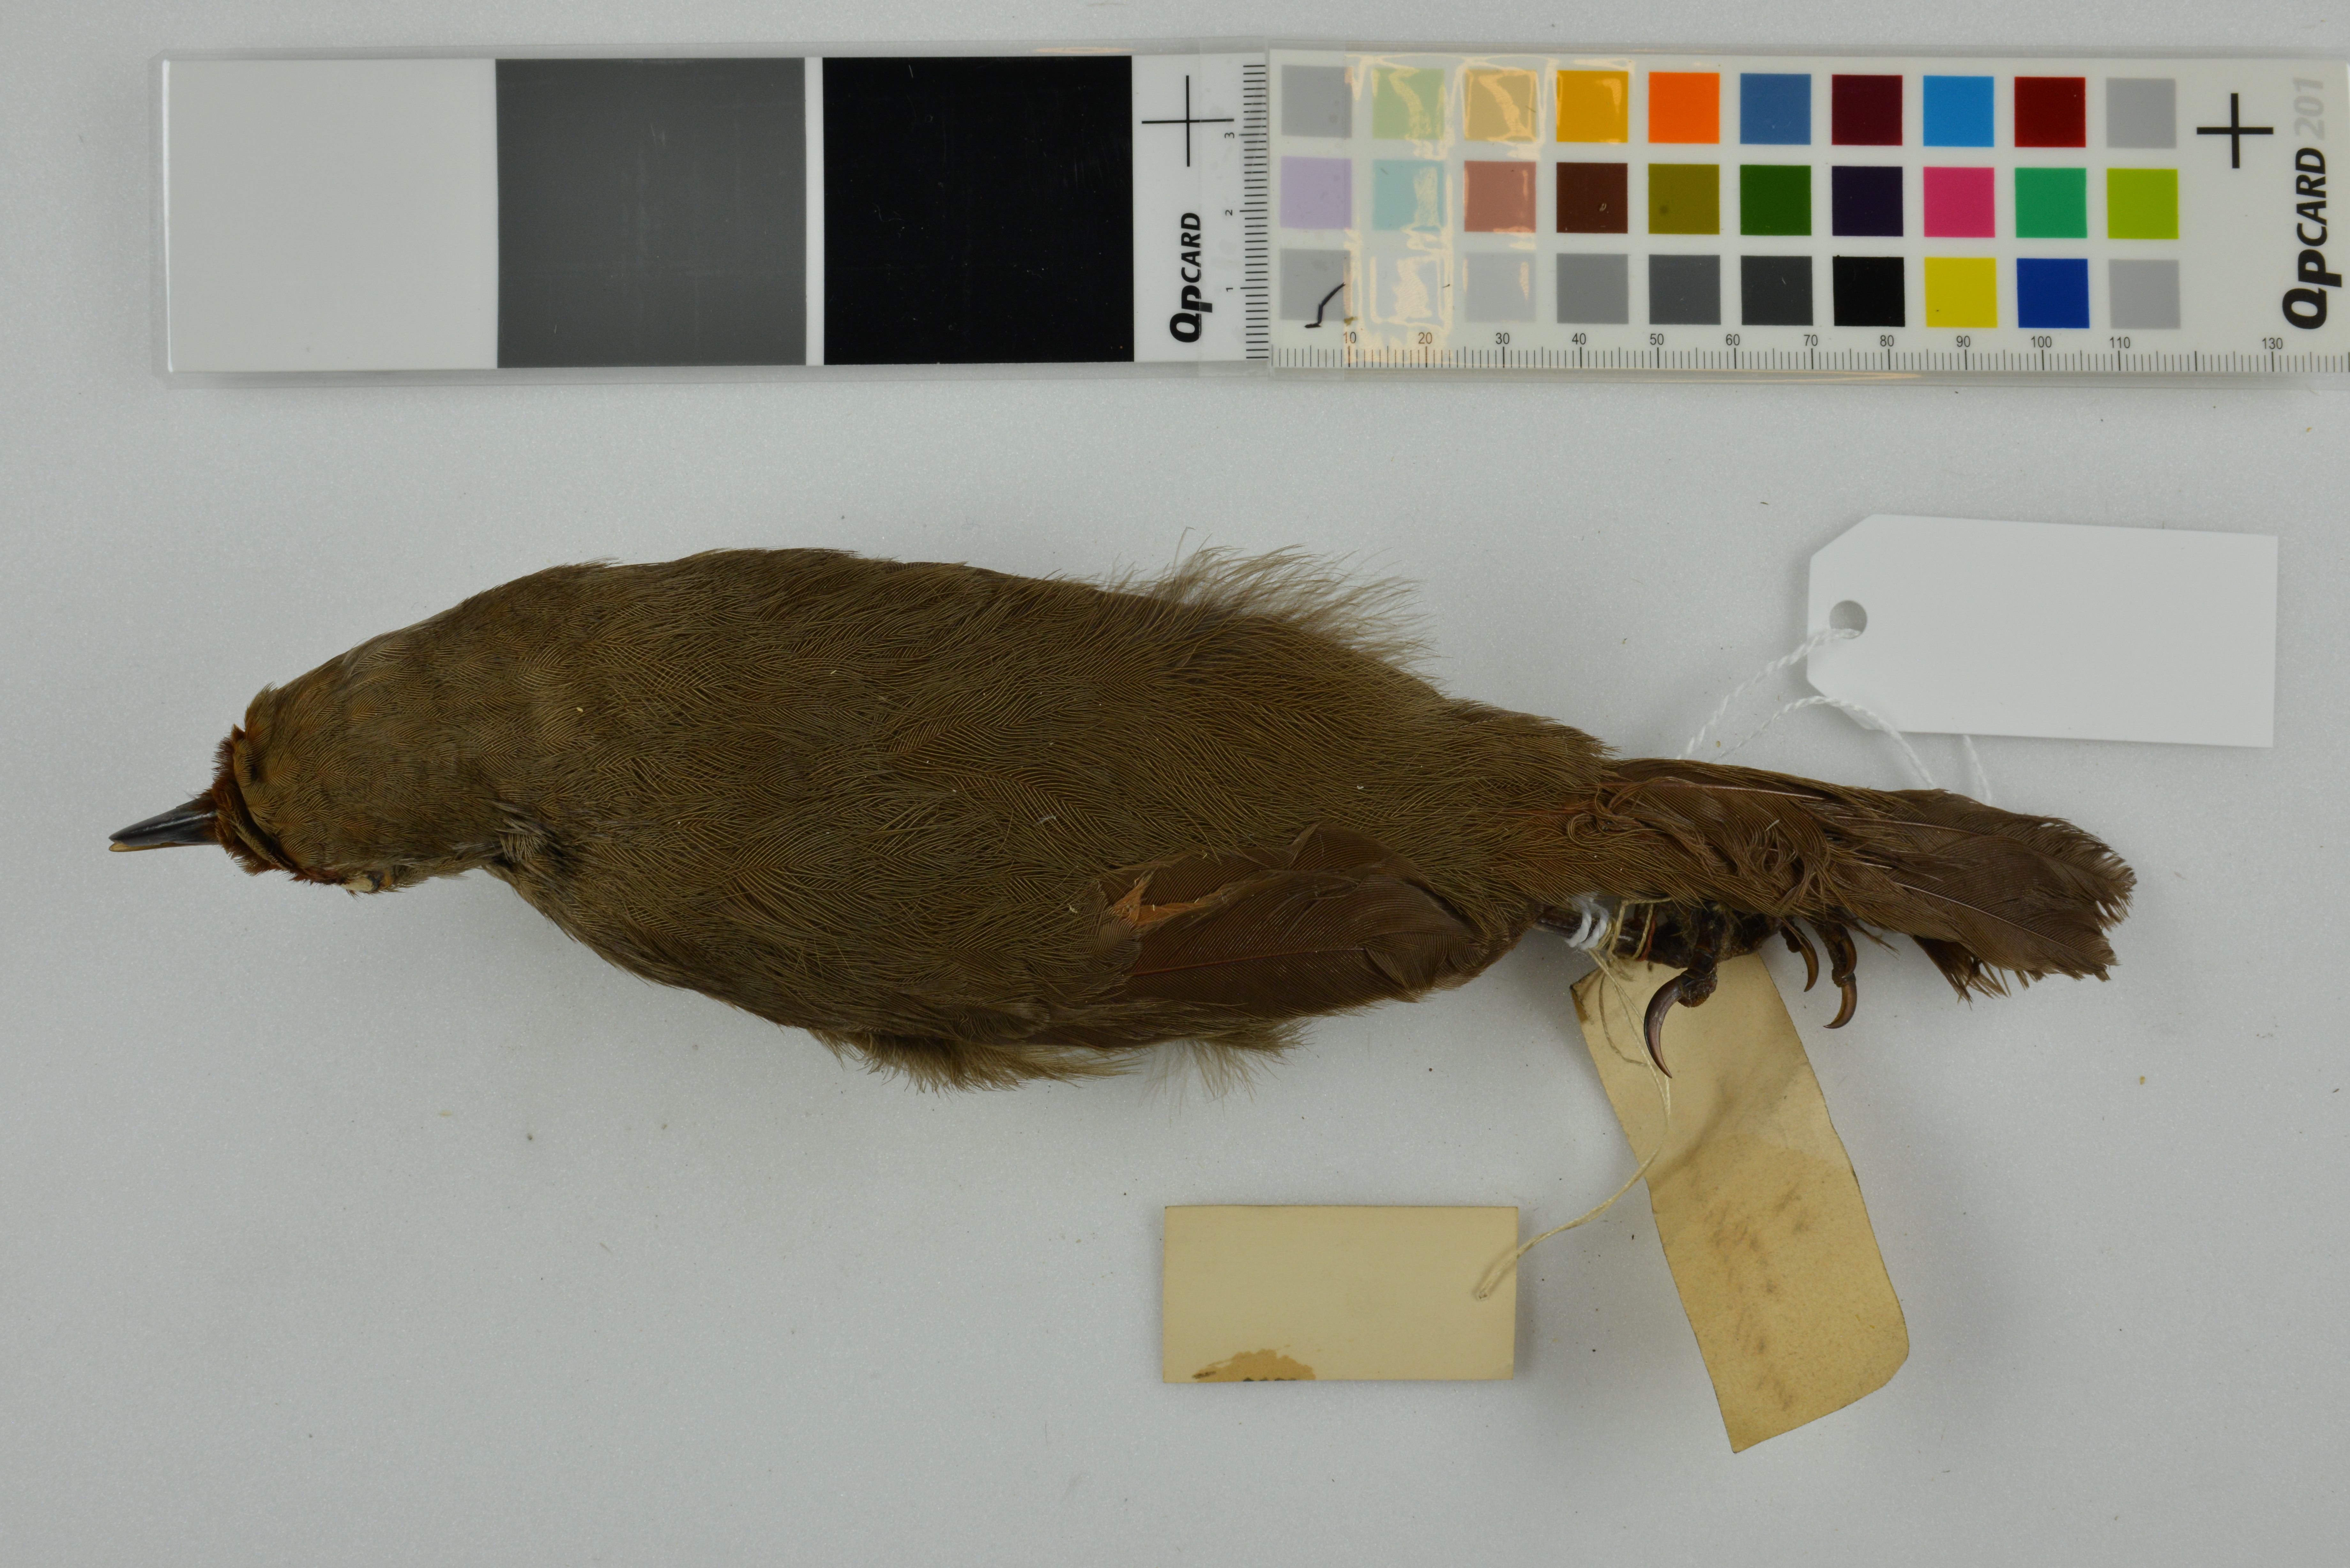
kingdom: Animalia
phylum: Chordata
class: Aves
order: Passeriformes
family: Leiothrichidae
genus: Garrulax
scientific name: Garrulax rufifrons
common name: Rufous-fronted laughingthrush
